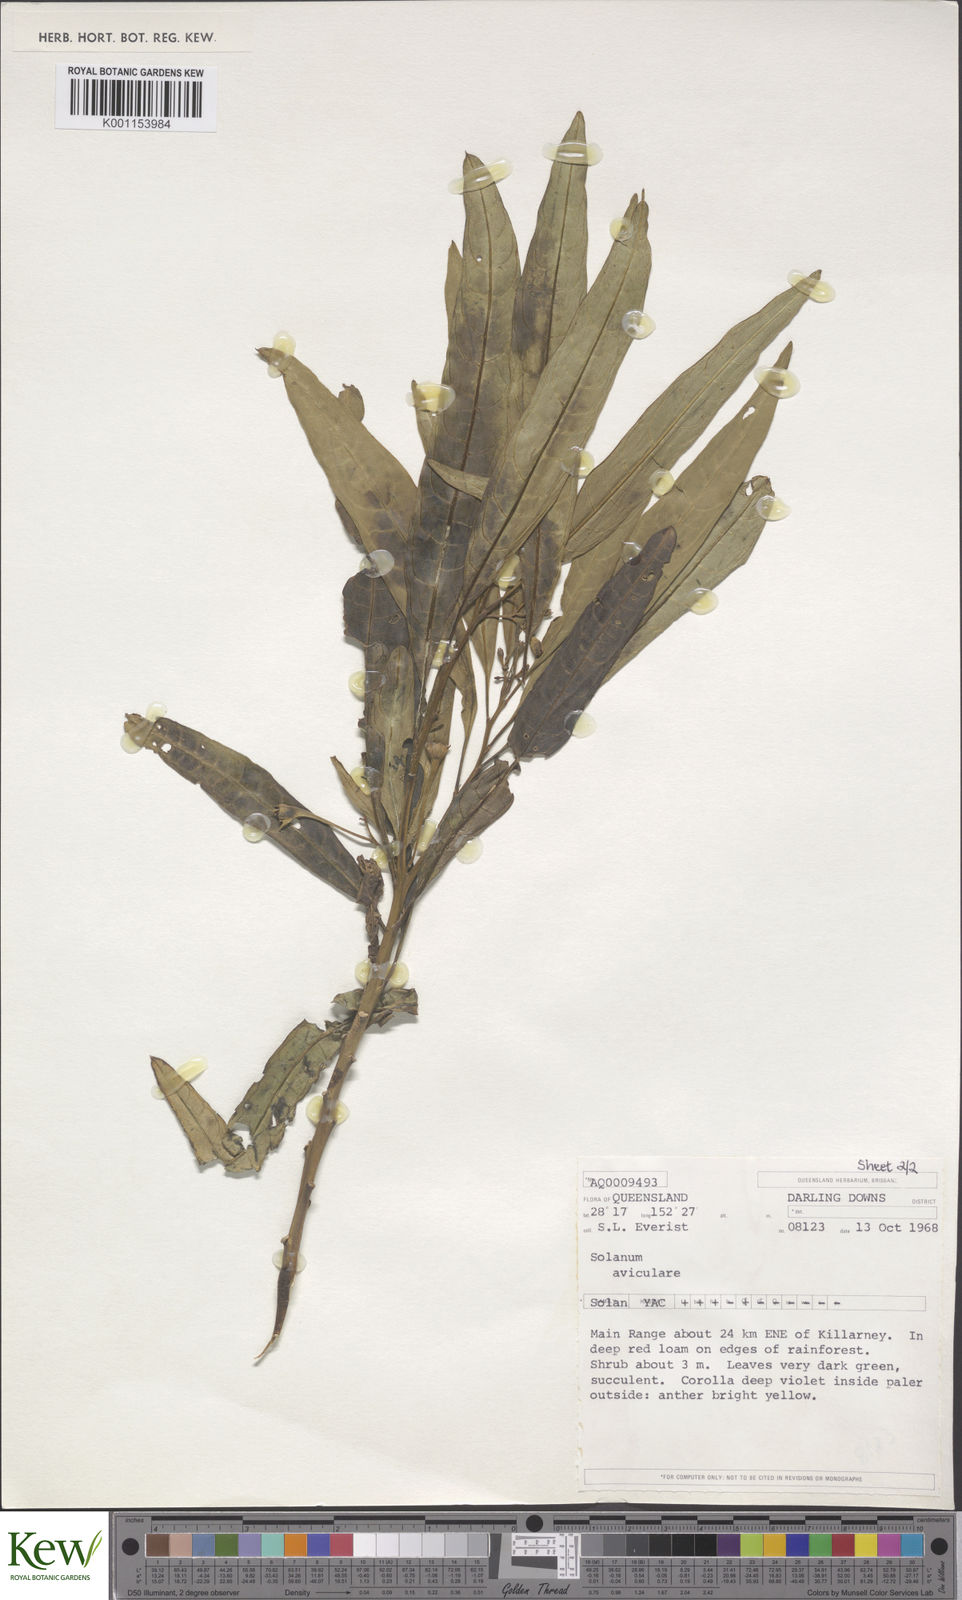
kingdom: Plantae
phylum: Tracheophyta
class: Magnoliopsida
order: Solanales
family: Solanaceae
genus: Solanum
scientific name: Solanum aviculare
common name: New zealand nightshade
